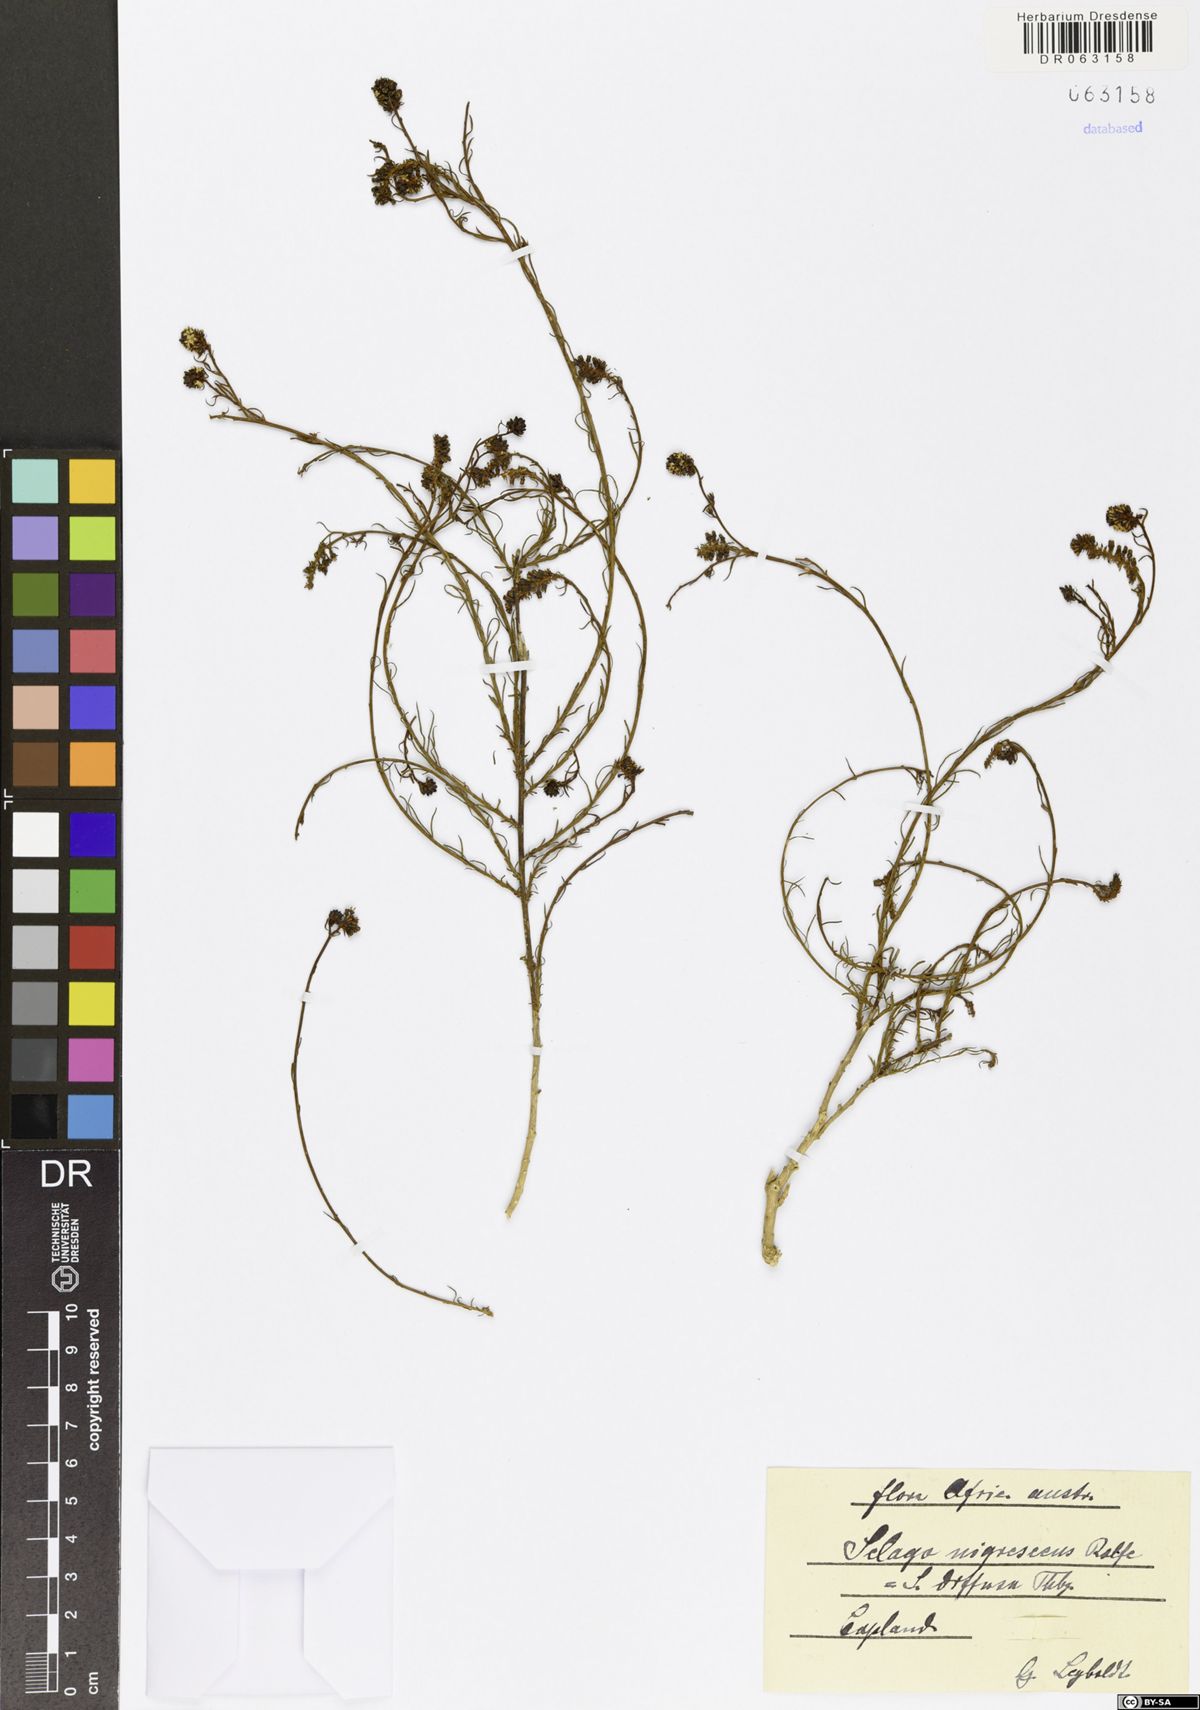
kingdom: Plantae
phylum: Tracheophyta
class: Magnoliopsida
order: Lamiales
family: Scrophulariaceae
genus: Selago
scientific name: Selago nigrescens
